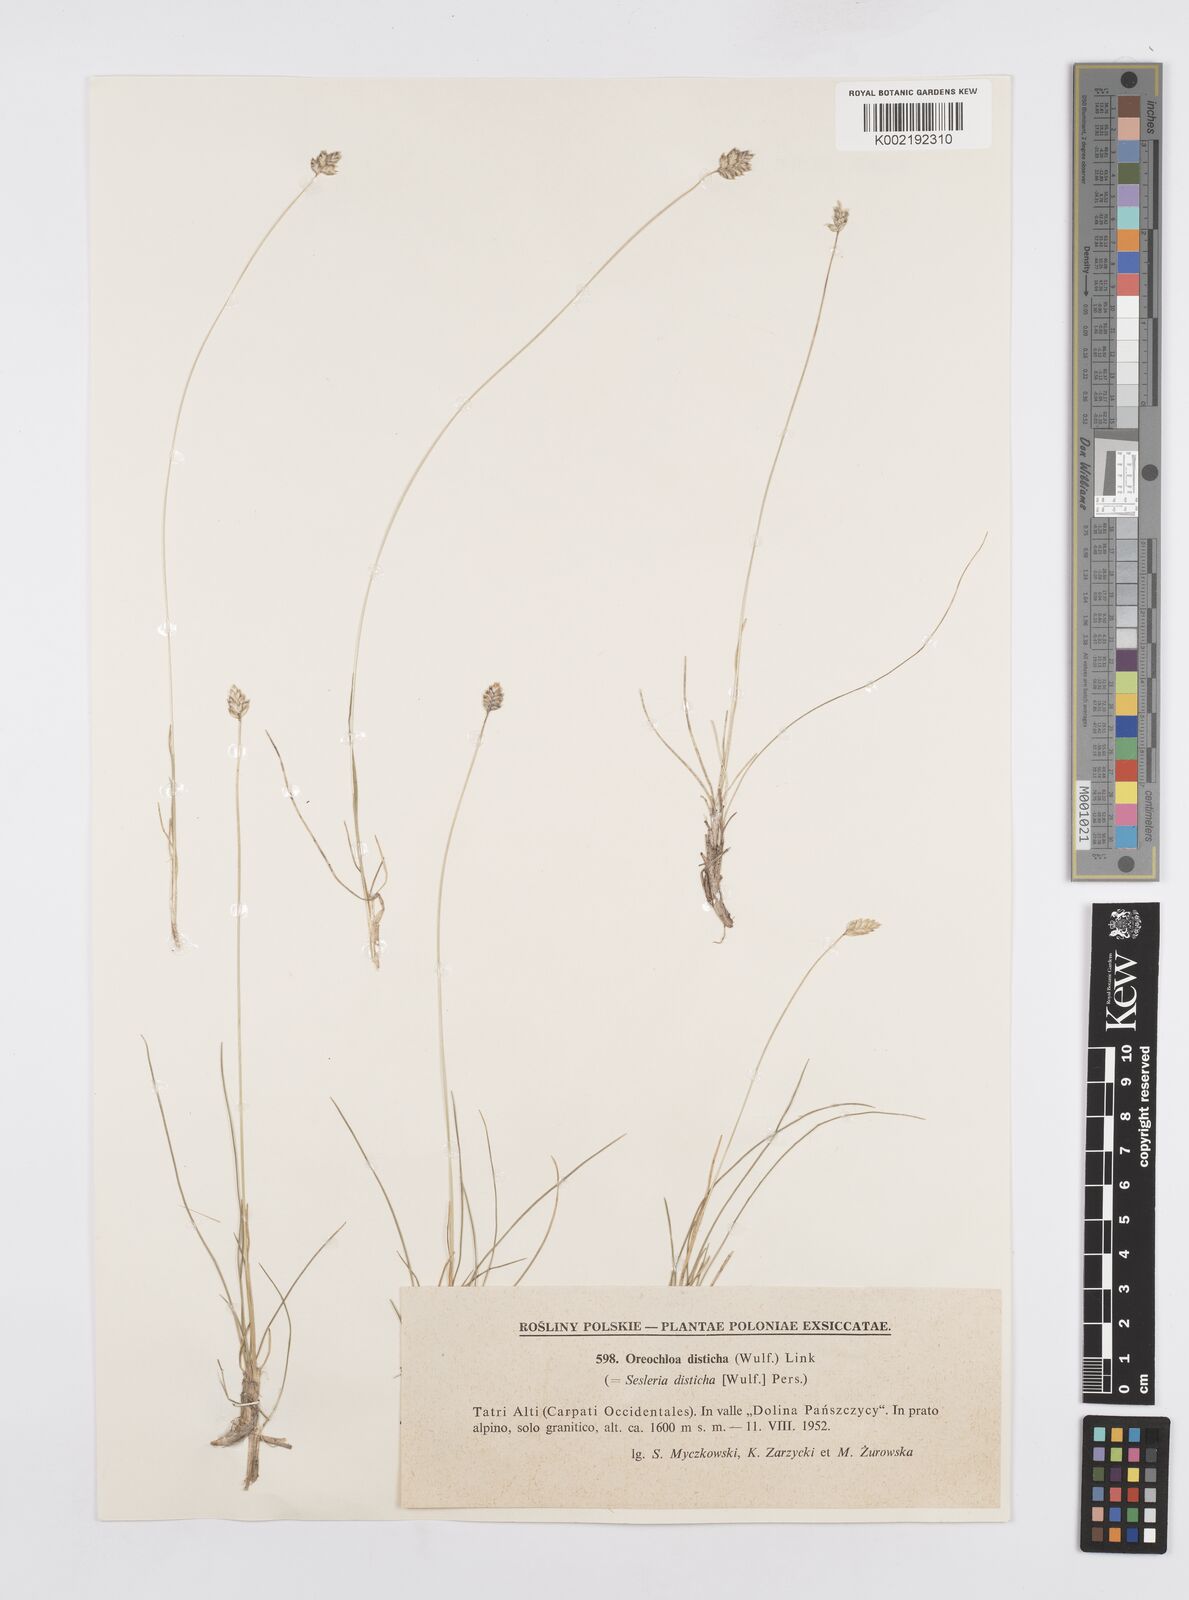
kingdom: Plantae
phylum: Tracheophyta
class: Liliopsida
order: Poales
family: Poaceae
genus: Oreochloa
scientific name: Oreochloa disticha
